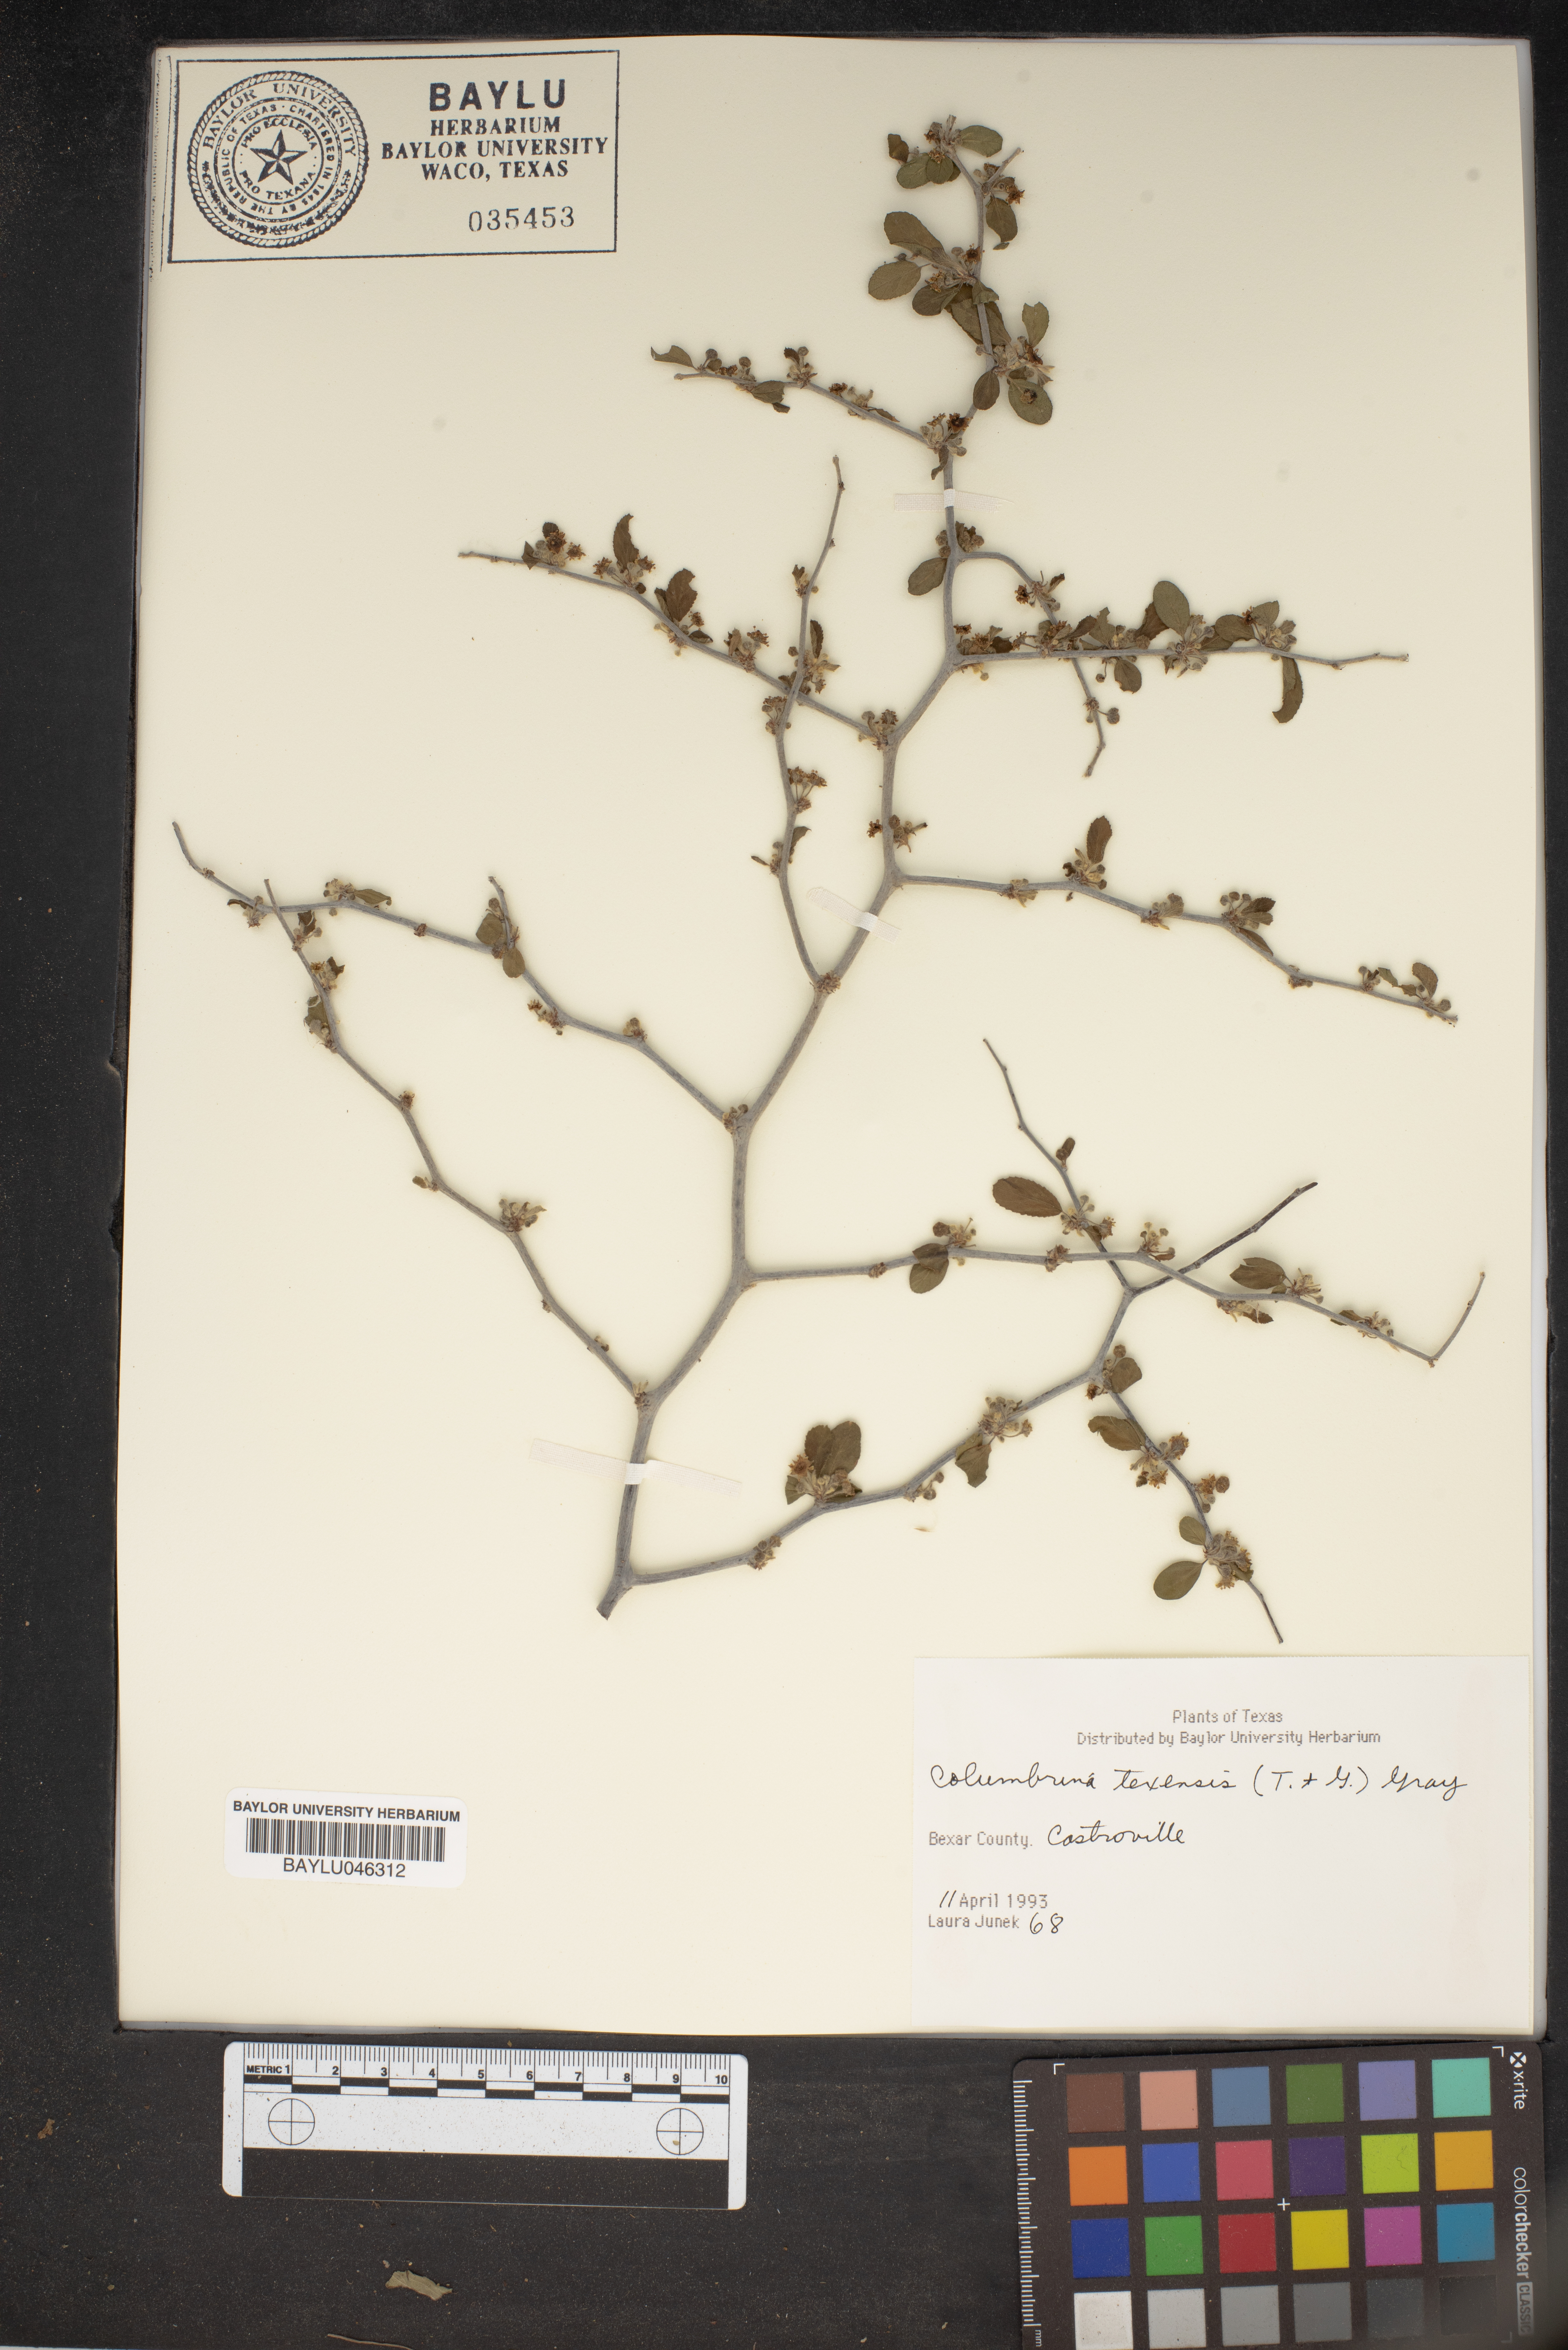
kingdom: Plantae
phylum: Tracheophyta
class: Magnoliopsida
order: Rosales
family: Rhamnaceae
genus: Colubrina
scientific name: Colubrina texensis
